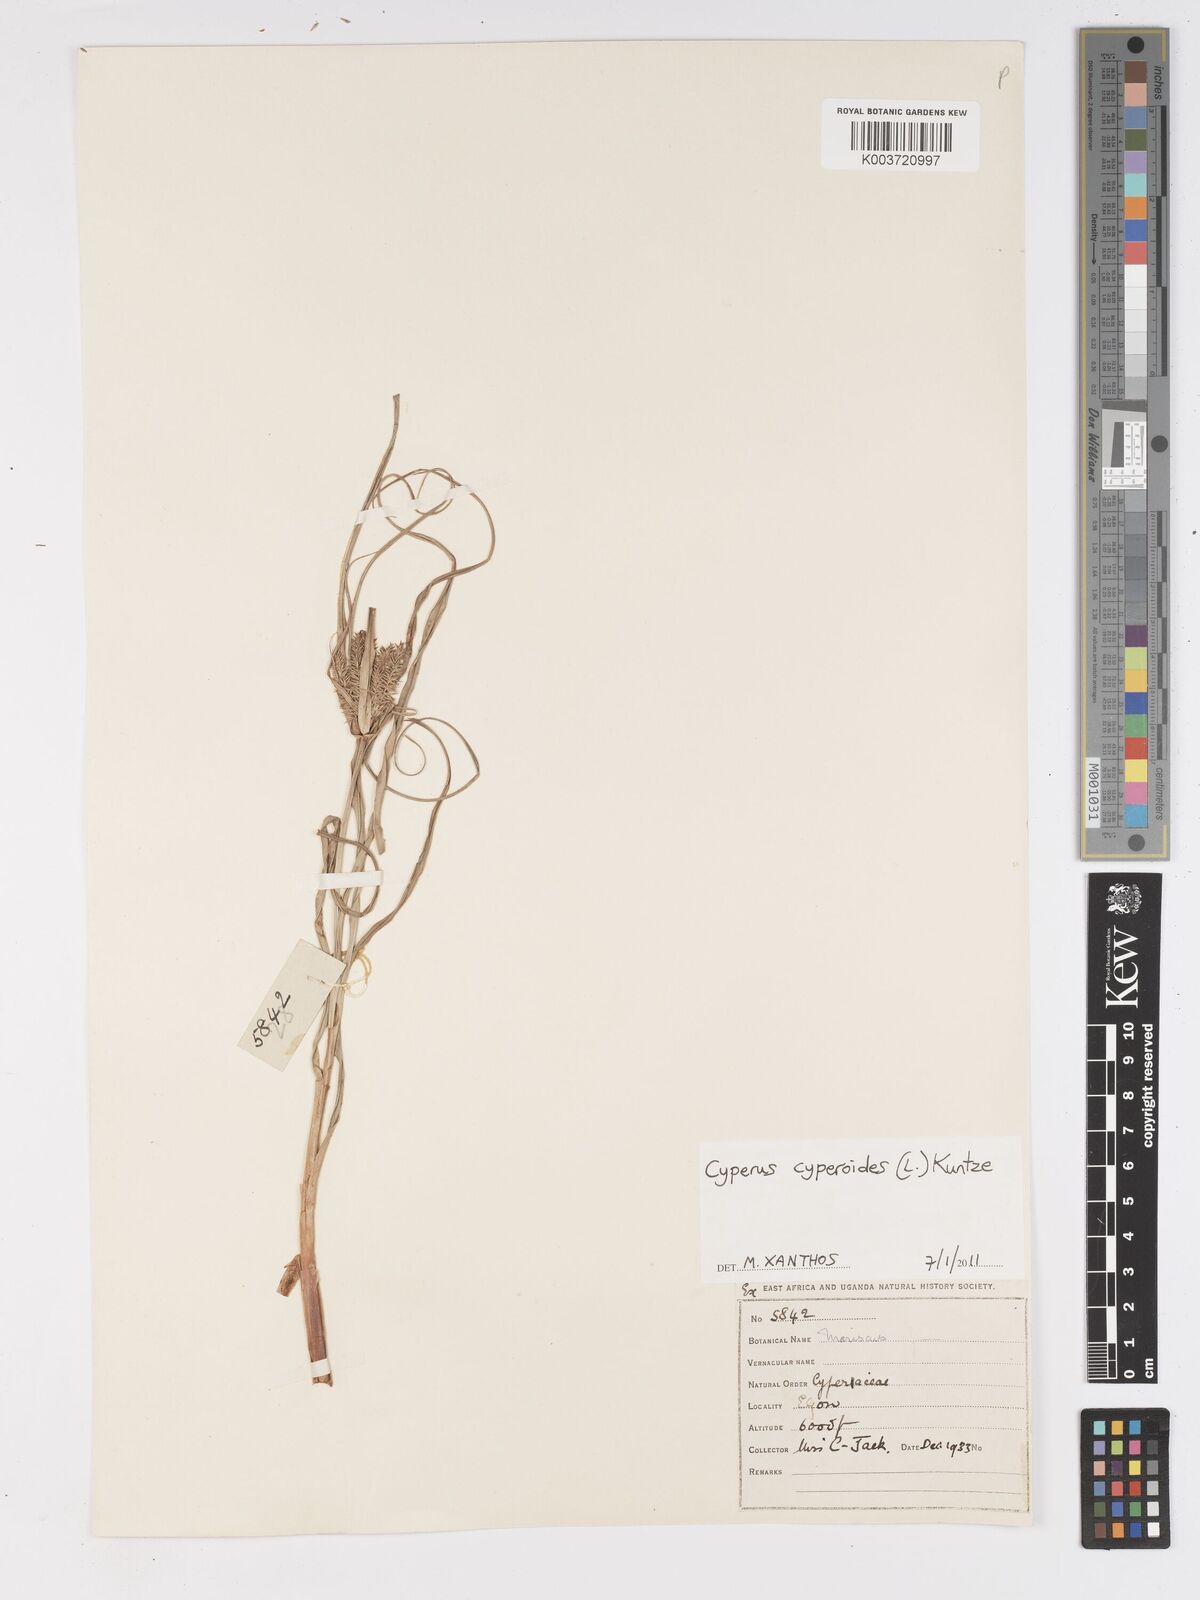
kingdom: Plantae
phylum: Tracheophyta
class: Liliopsida
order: Poales
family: Cyperaceae
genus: Cyperus
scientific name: Cyperus
